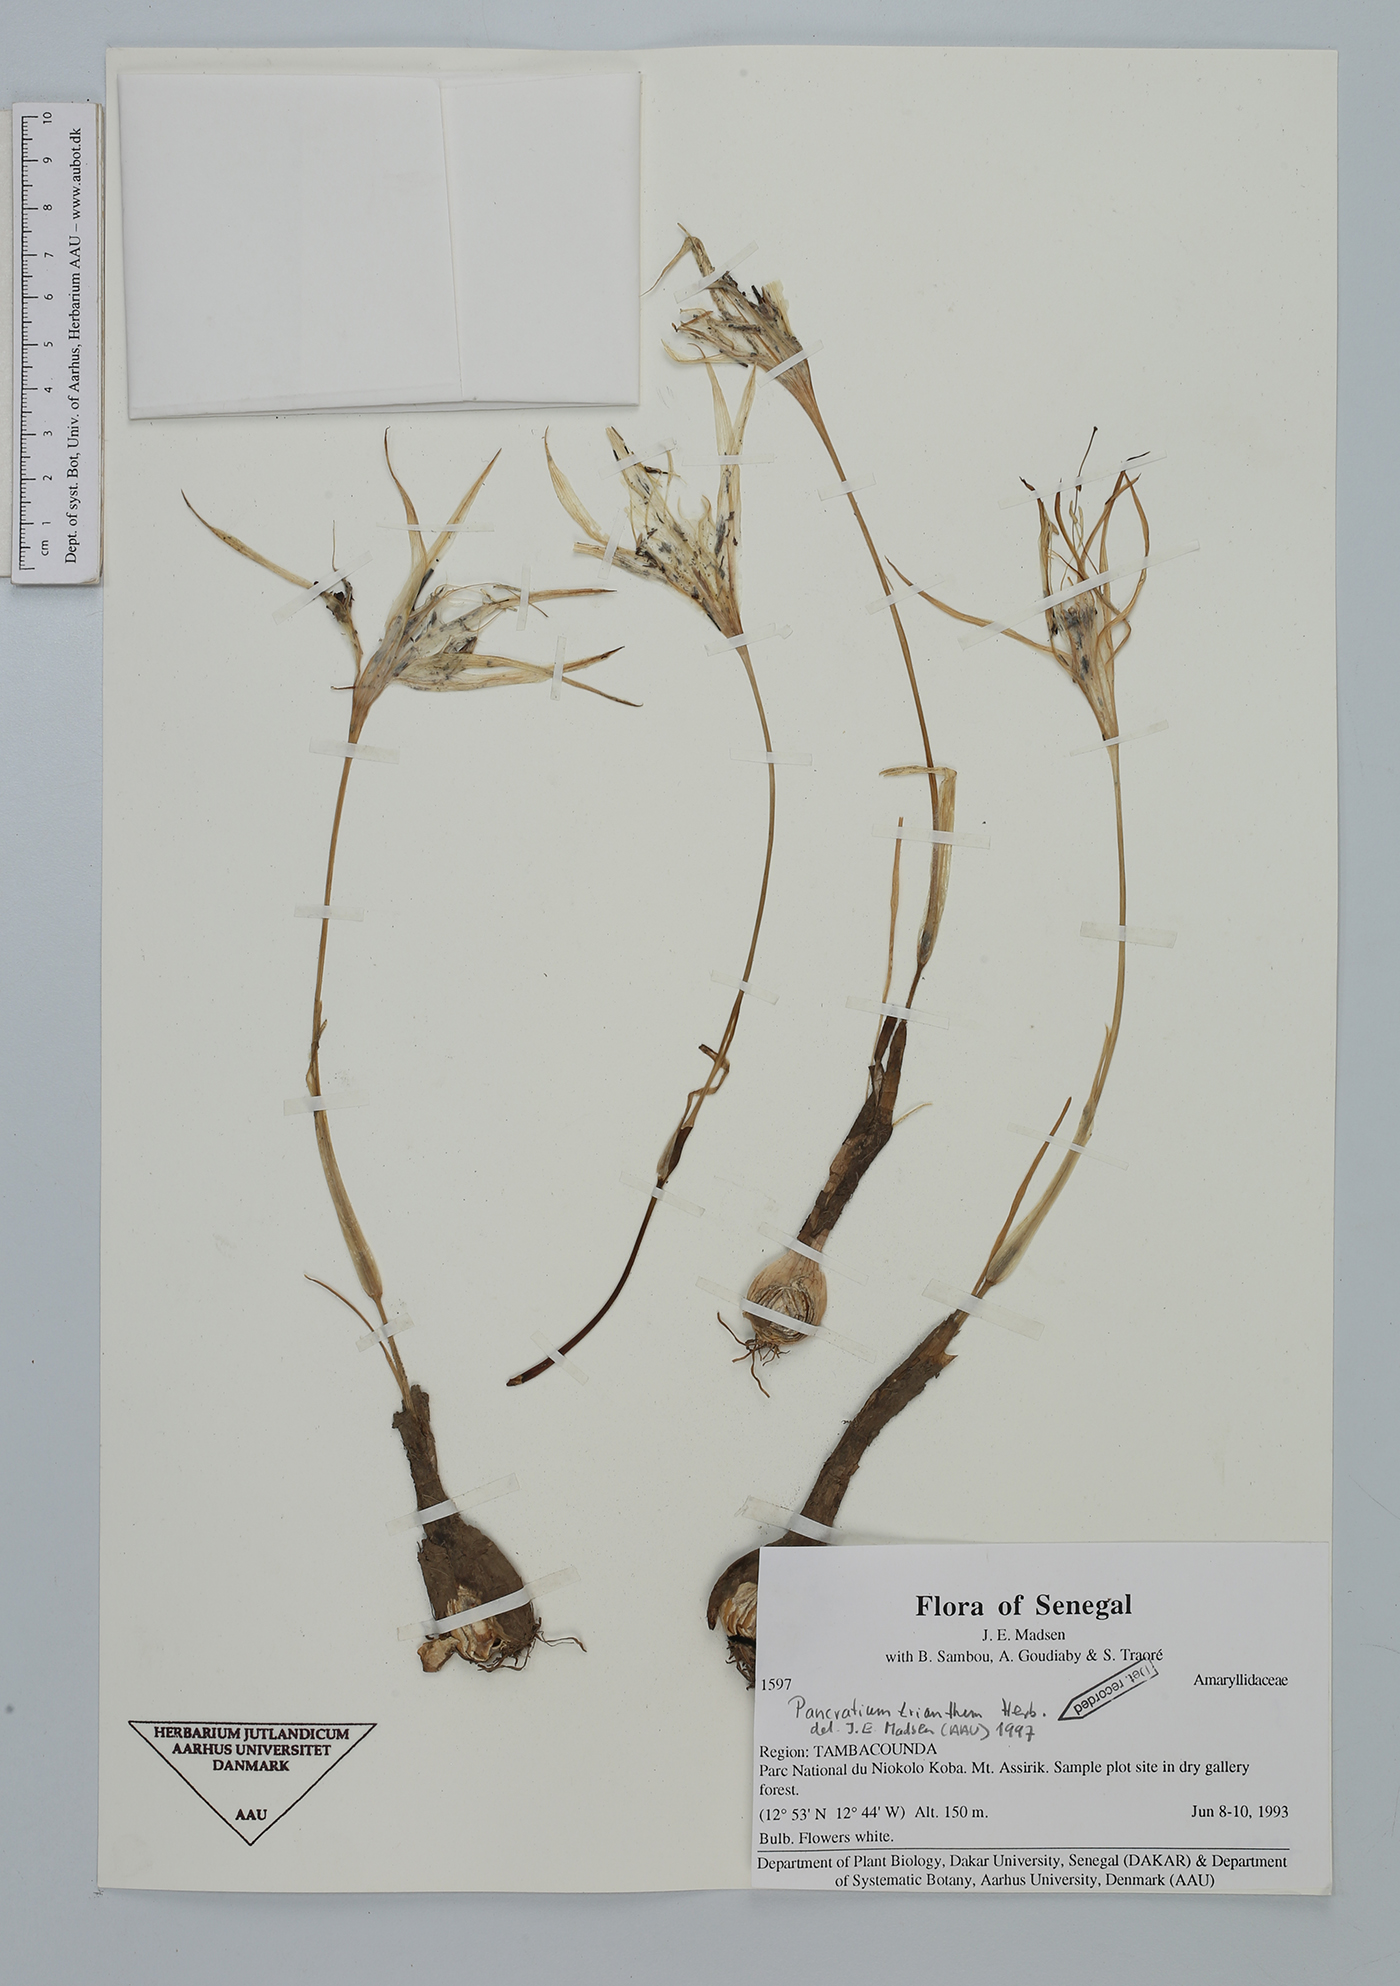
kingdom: Plantae
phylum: Tracheophyta
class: Liliopsida
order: Asparagales
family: Amaryllidaceae
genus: Pancratium
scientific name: Pancratium trianthum
